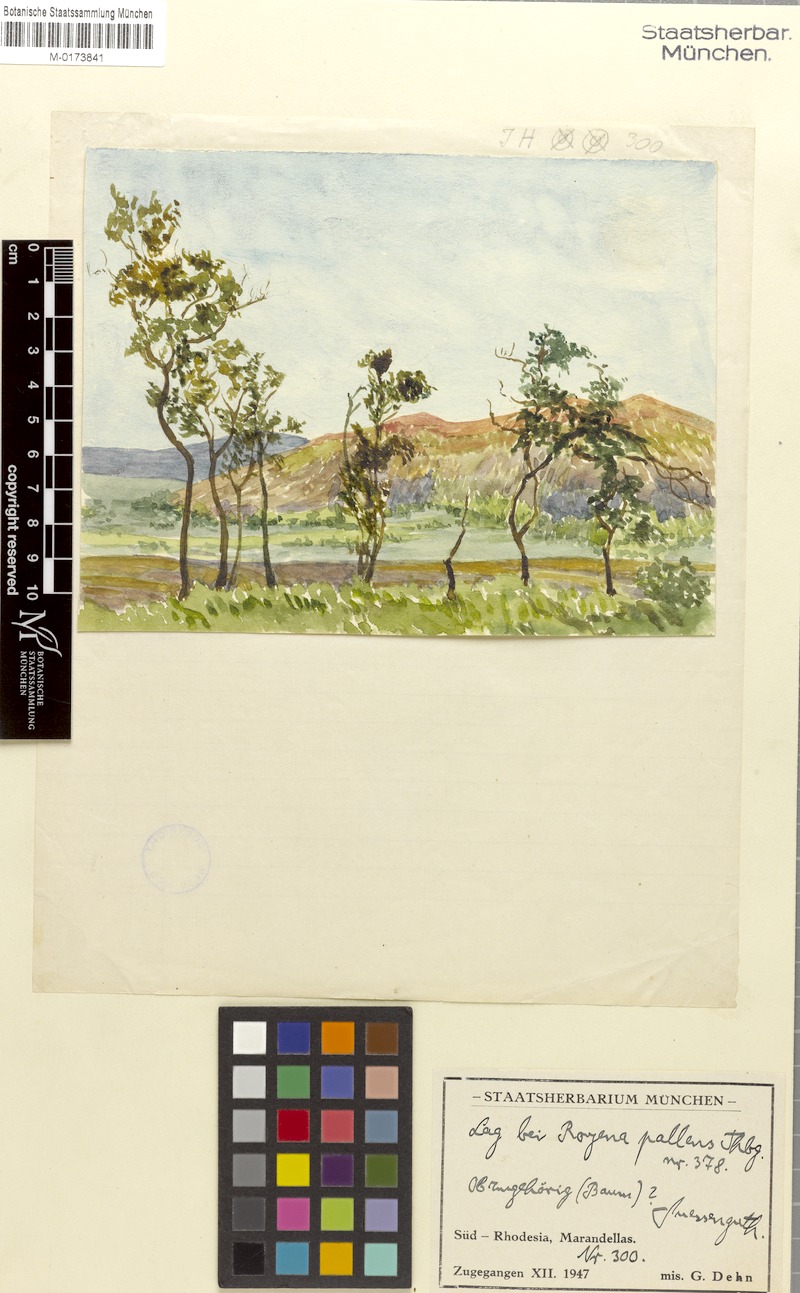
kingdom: Plantae
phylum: Tracheophyta
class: Magnoliopsida
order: Ericales
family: Ebenaceae
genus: Diospyros
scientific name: Diospyros pallens
